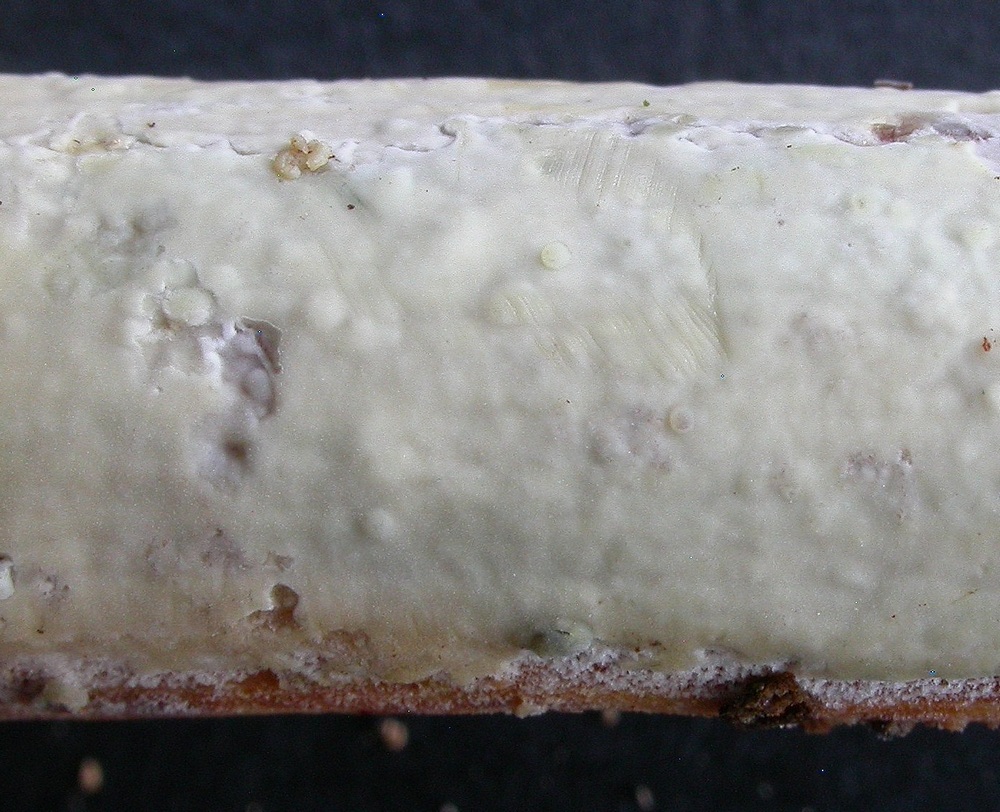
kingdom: Fungi
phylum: Basidiomycota
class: Agaricomycetes
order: Russulales
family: Stereaceae
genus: Gloeocystidiellum
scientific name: Gloeocystidiellum porosum
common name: mælkehvid olieskind
